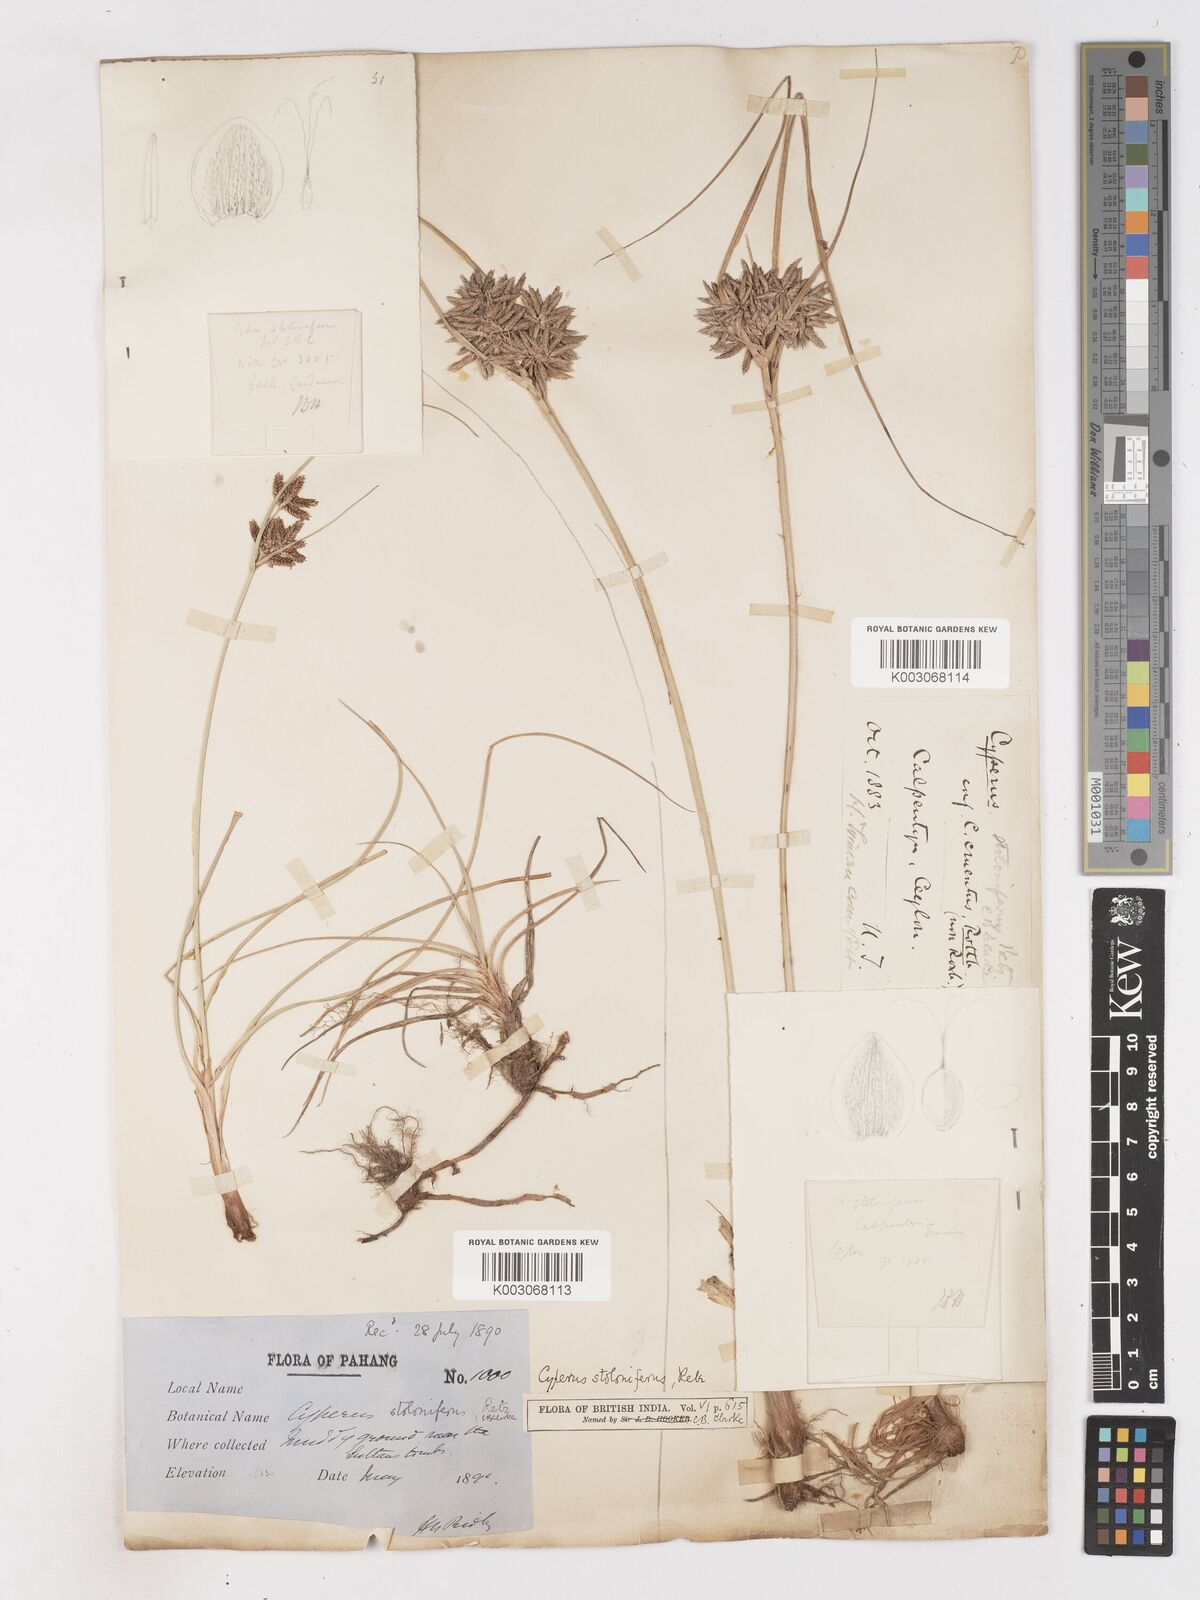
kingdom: Plantae
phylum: Tracheophyta
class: Liliopsida
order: Poales
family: Cyperaceae
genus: Cyperus
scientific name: Cyperus bulbosus
